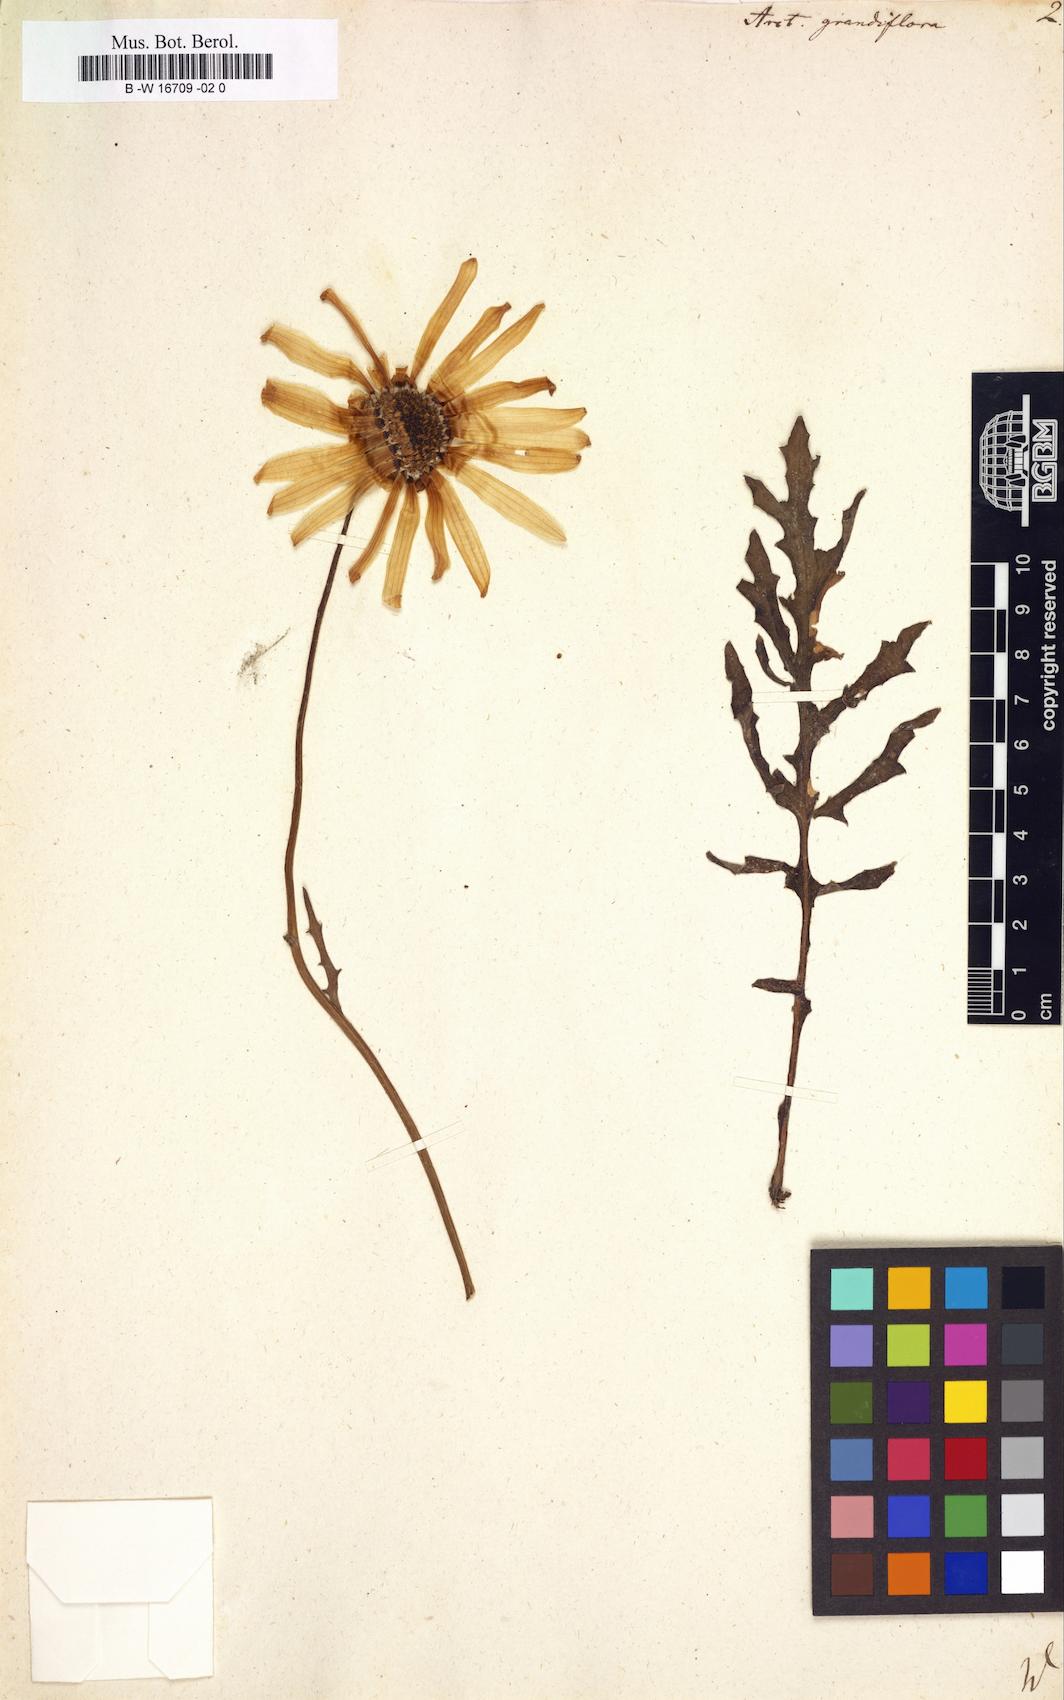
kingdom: Plantae
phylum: Tracheophyta
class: Magnoliopsida
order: Asterales
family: Asteraceae
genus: Arctotis
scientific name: Arctotis revoluta
